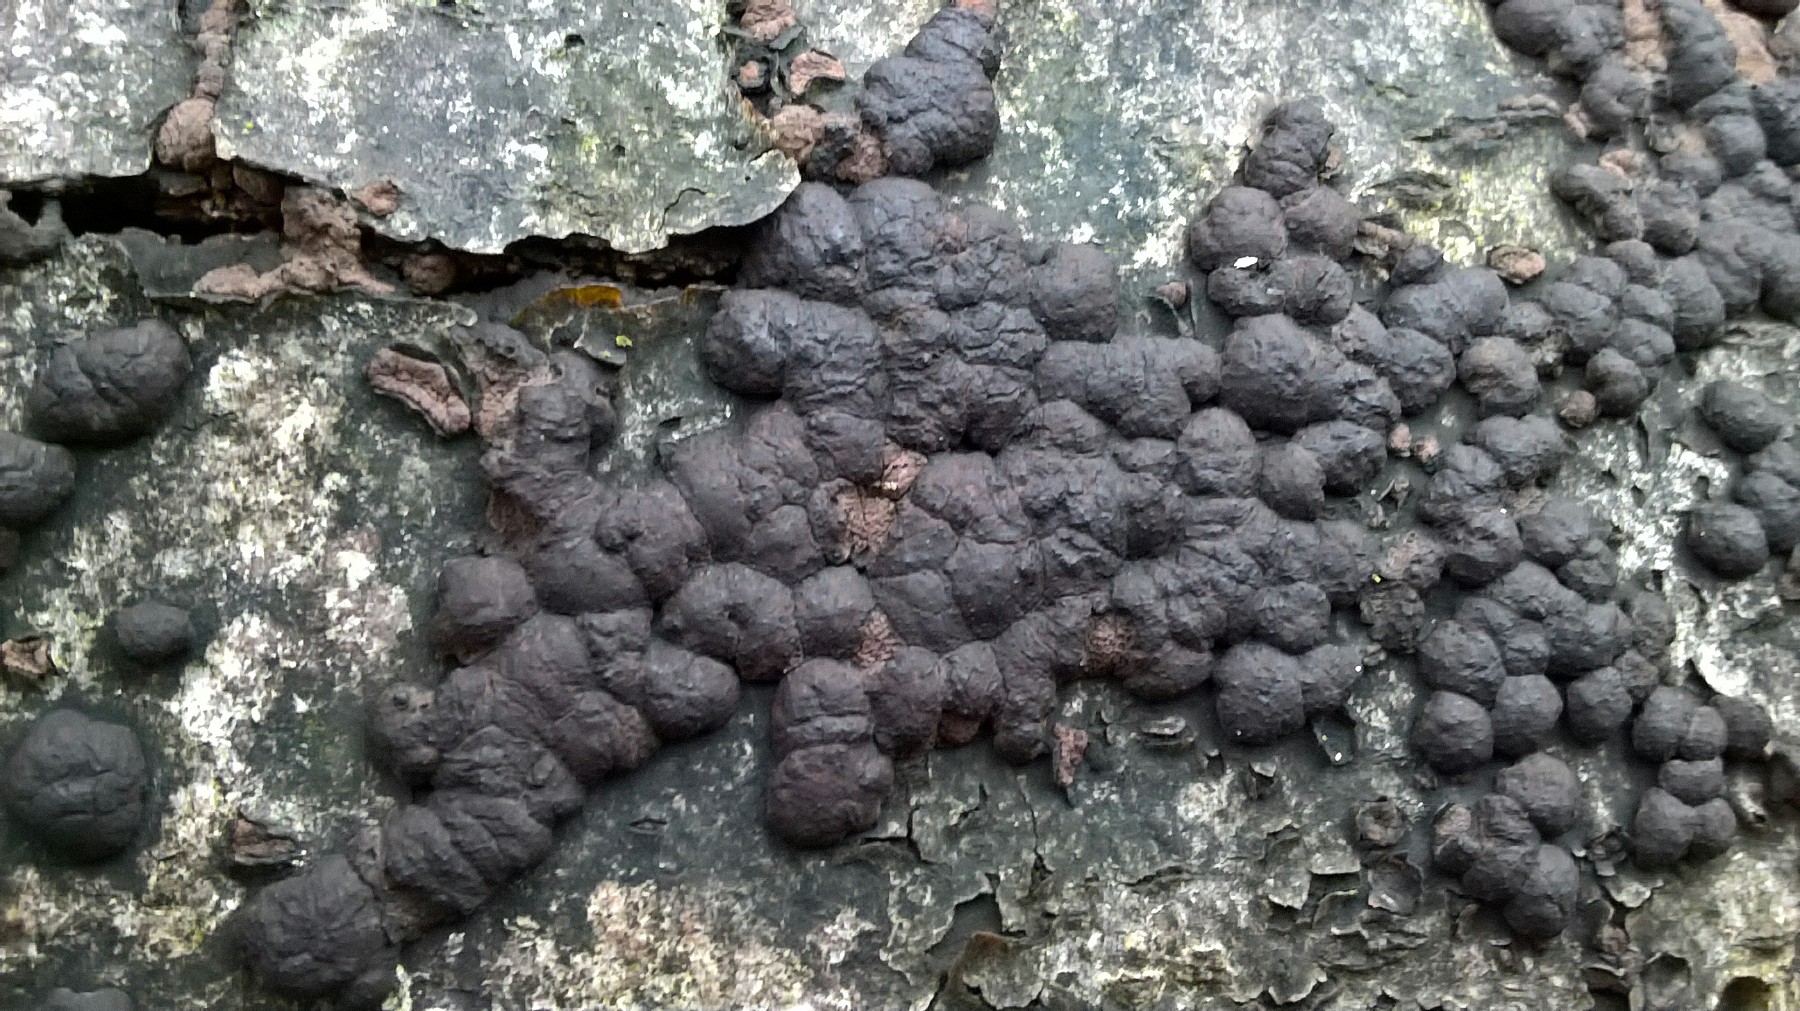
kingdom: Fungi
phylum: Ascomycota
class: Sordariomycetes
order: Xylariales
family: Hypoxylaceae
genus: Jackrogersella
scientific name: Jackrogersella cohaerens
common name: sammenflydende kulbær
